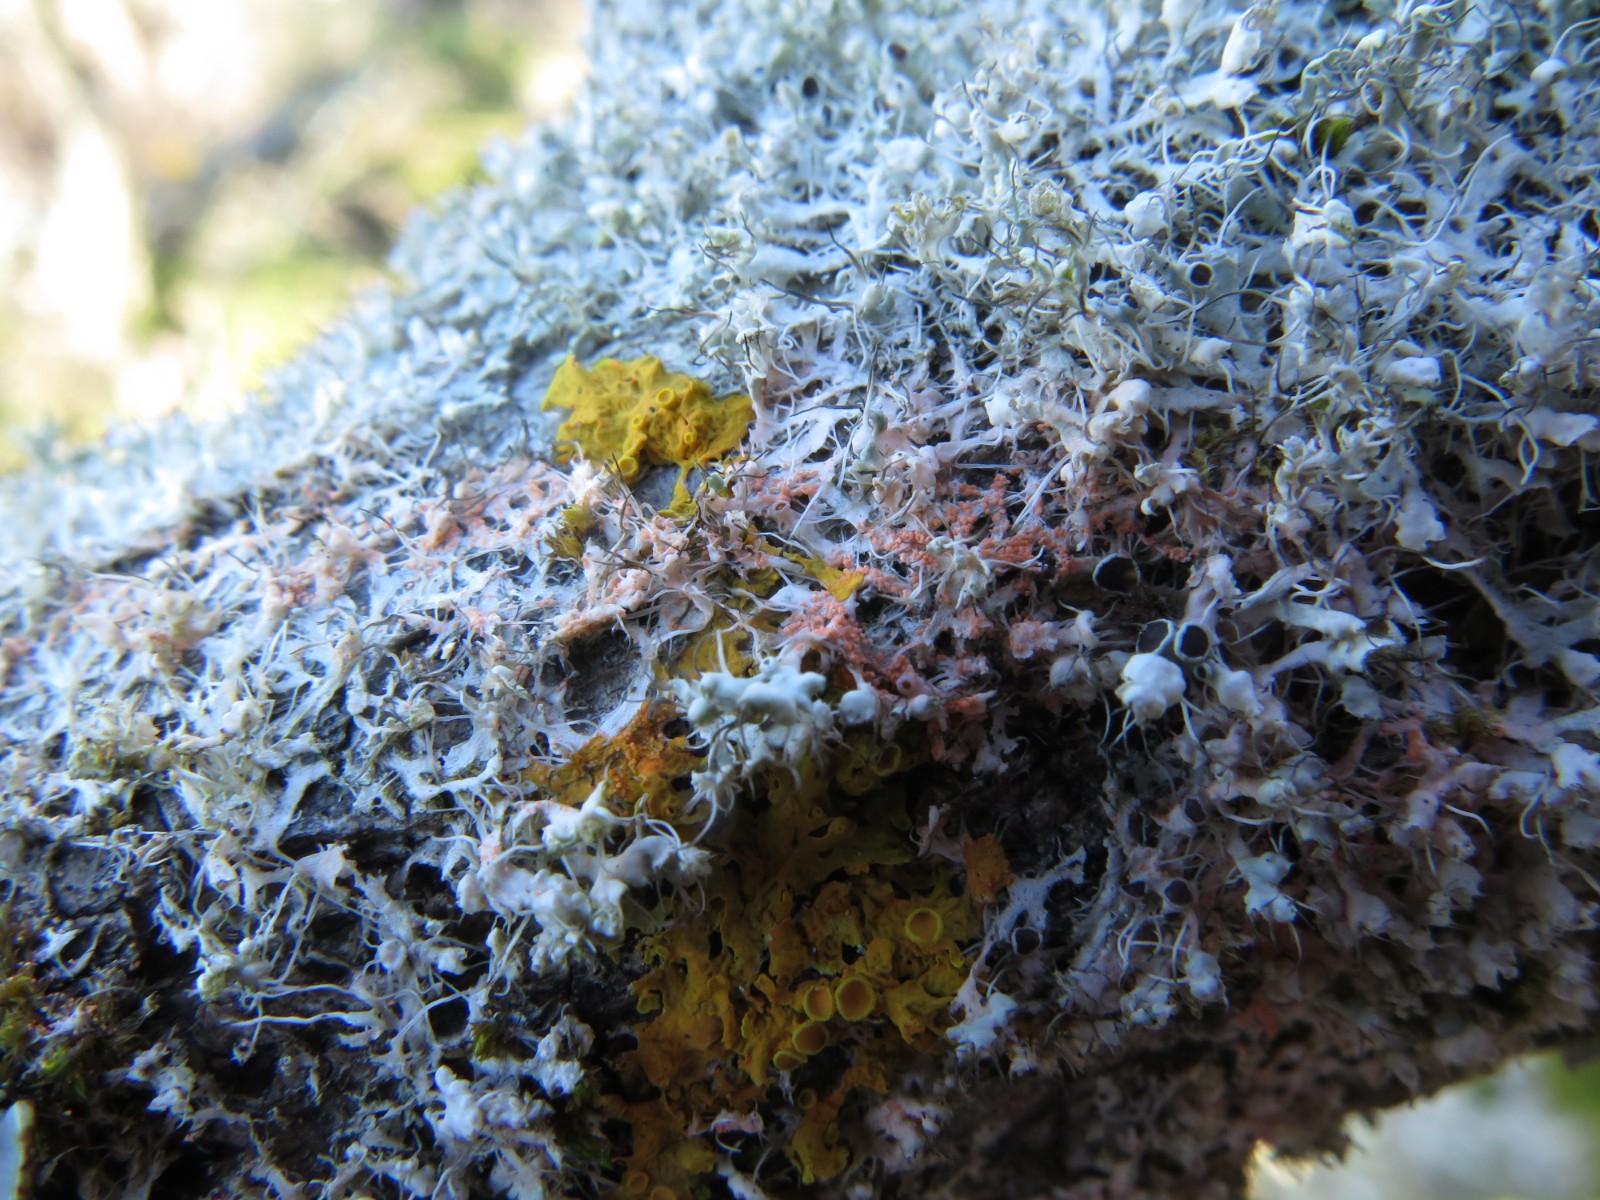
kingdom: Fungi
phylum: Ascomycota
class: Lecanoromycetes
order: Caliciales
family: Physciaceae
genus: Physcia
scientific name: Physcia tenella
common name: spæd rosetlav
